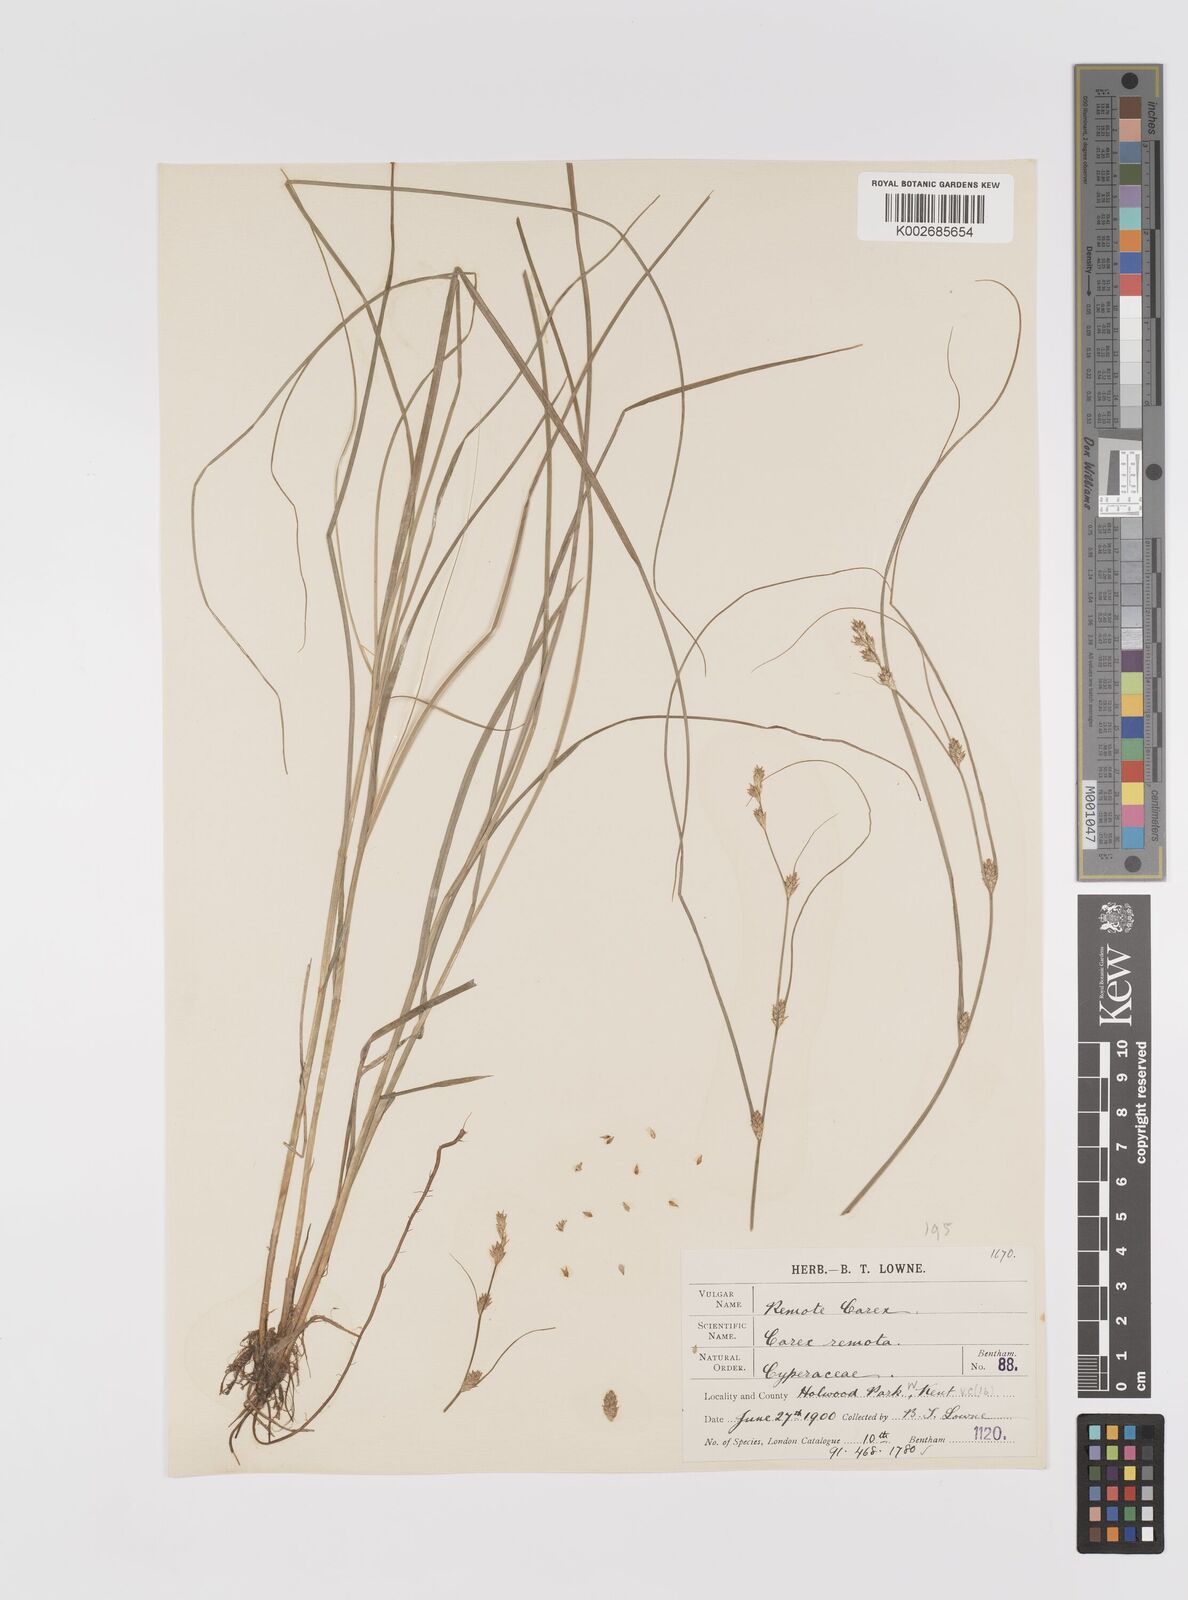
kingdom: Plantae
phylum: Tracheophyta
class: Liliopsida
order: Poales
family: Cyperaceae
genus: Carex
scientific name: Carex remota
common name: Remote sedge
